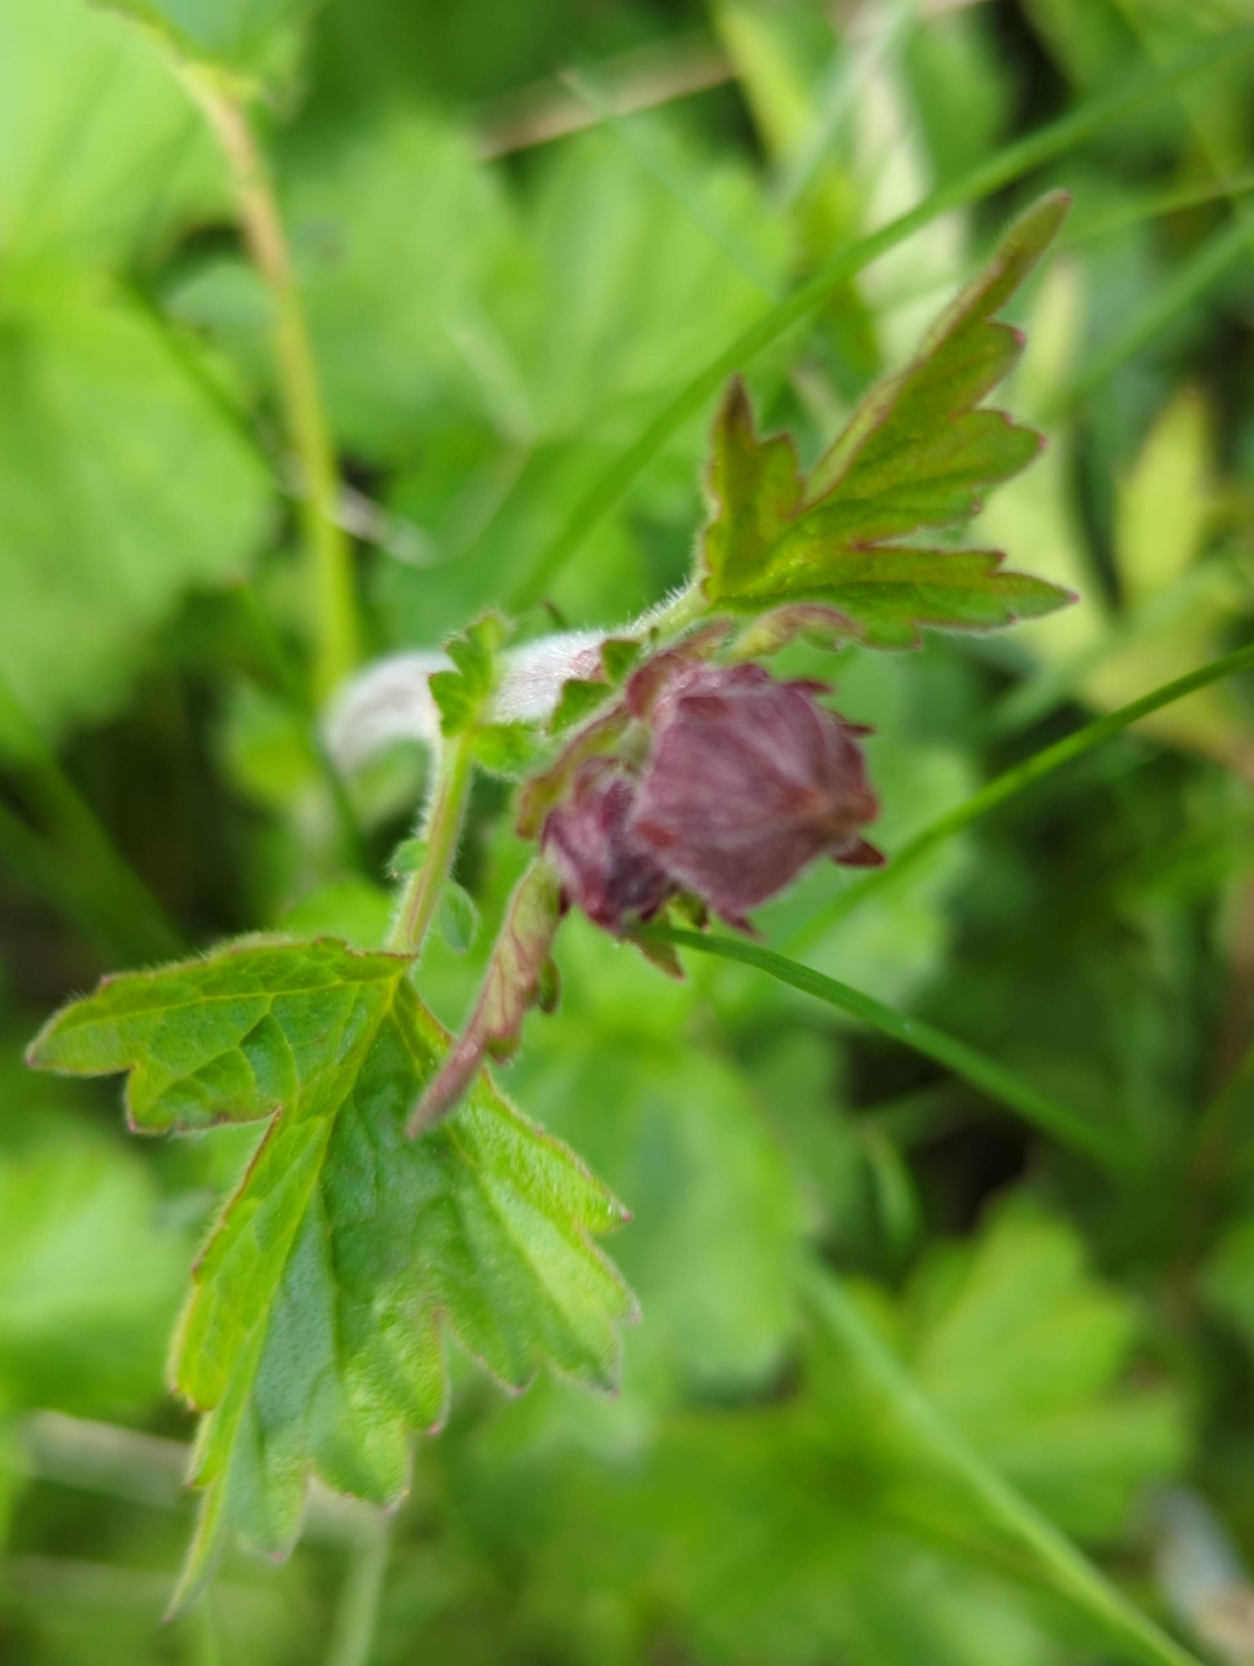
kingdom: Plantae
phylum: Tracheophyta
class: Magnoliopsida
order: Rosales
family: Rosaceae
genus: Geum
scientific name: Geum rivale
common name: Eng-nellikerod
